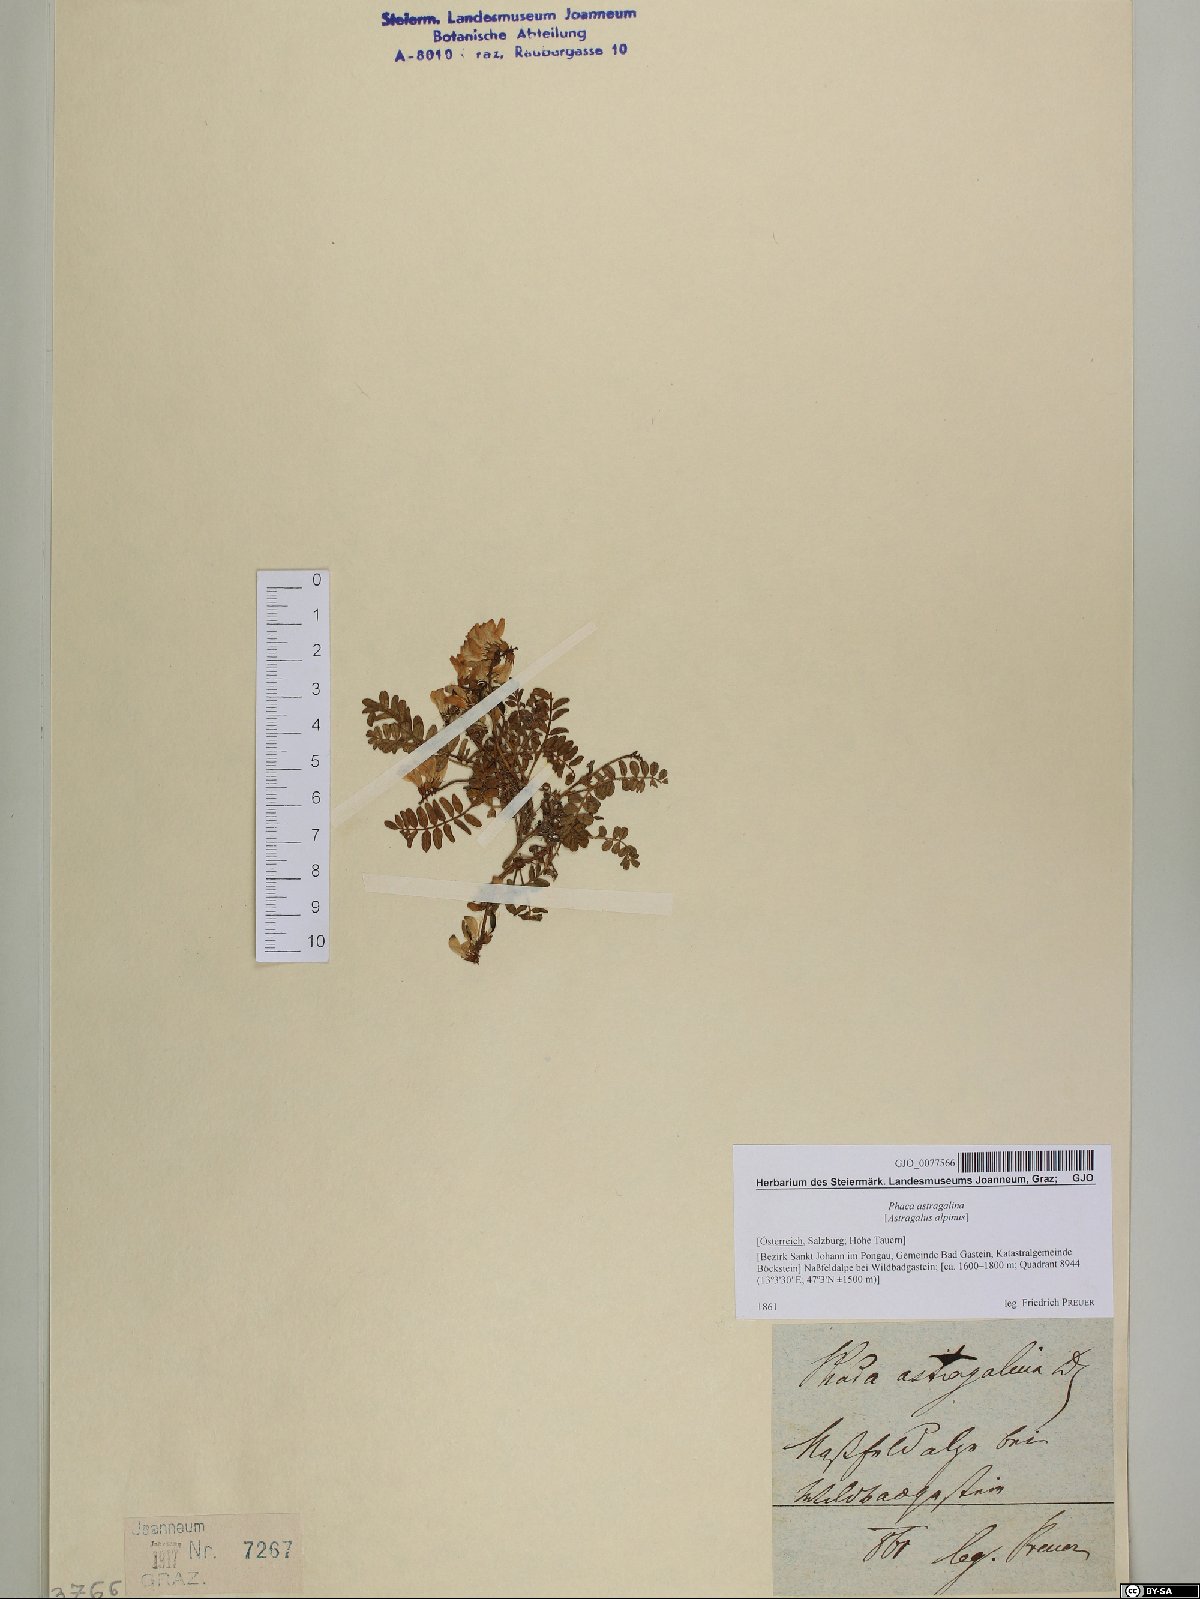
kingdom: Plantae
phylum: Tracheophyta
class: Magnoliopsida
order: Fabales
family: Fabaceae
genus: Astragalus
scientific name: Astragalus alpinus
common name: Alpine milk-vetch
